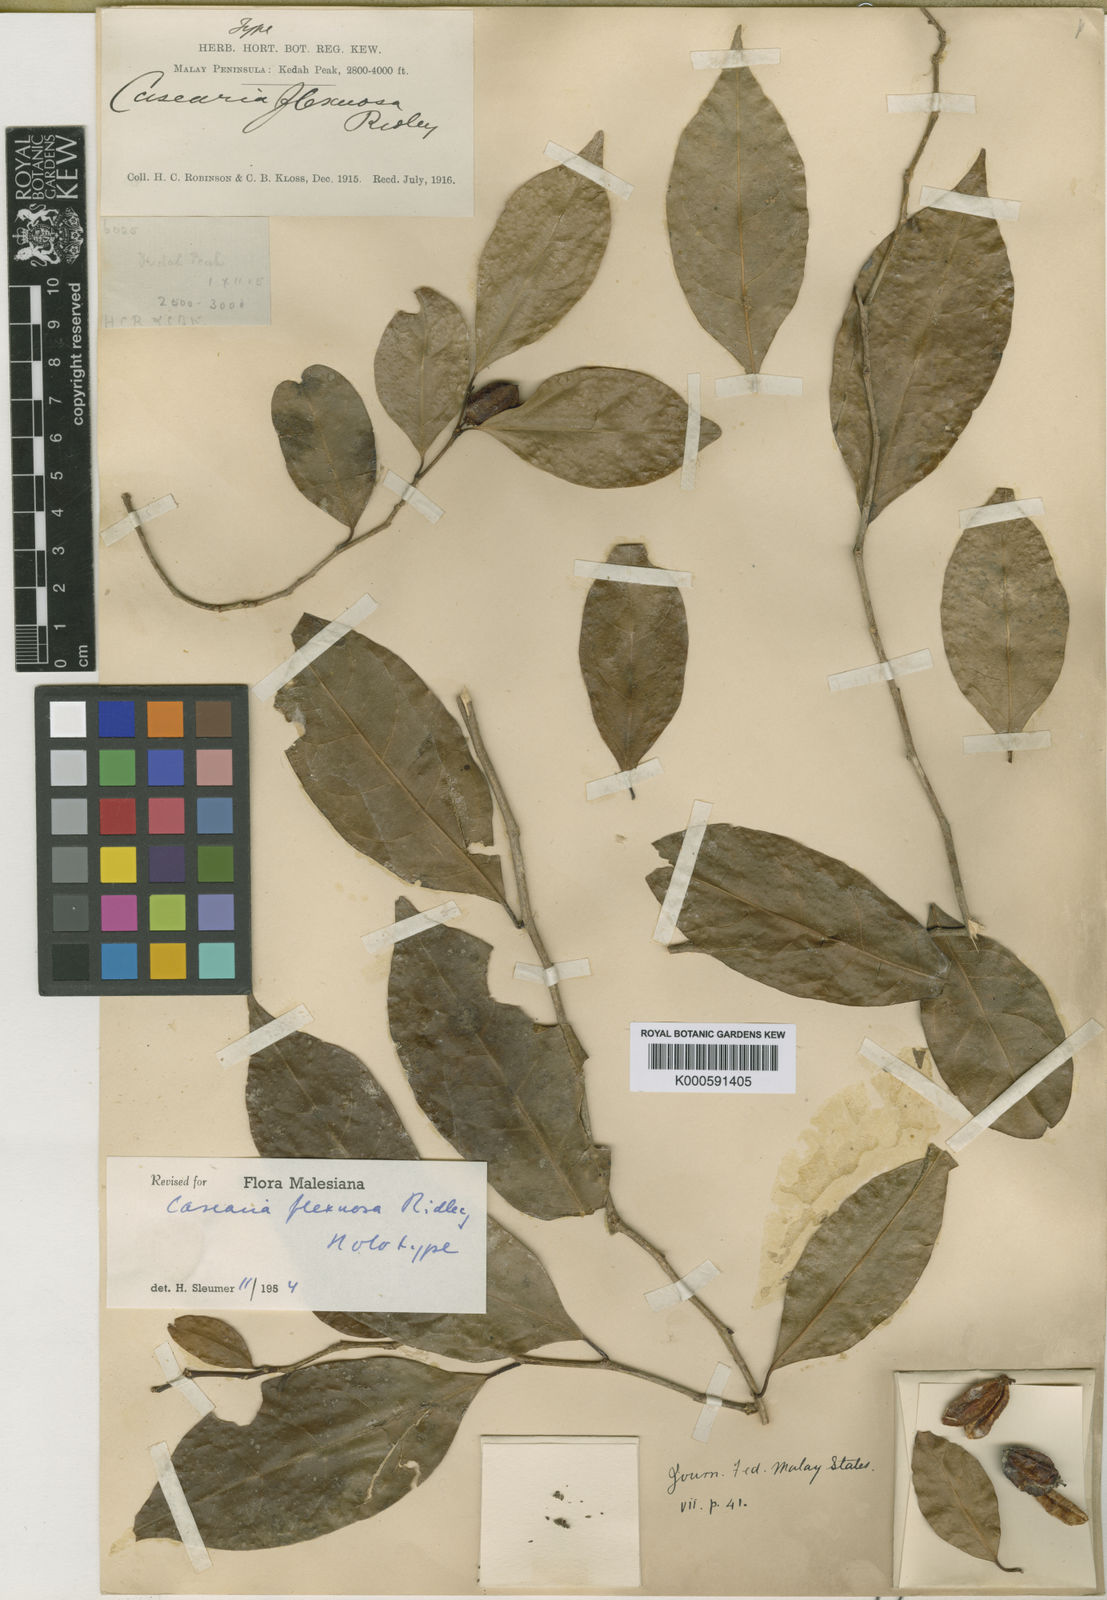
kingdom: Plantae
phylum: Tracheophyta
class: Magnoliopsida
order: Malpighiales
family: Salicaceae
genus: Casearia
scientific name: Casearia flexula
